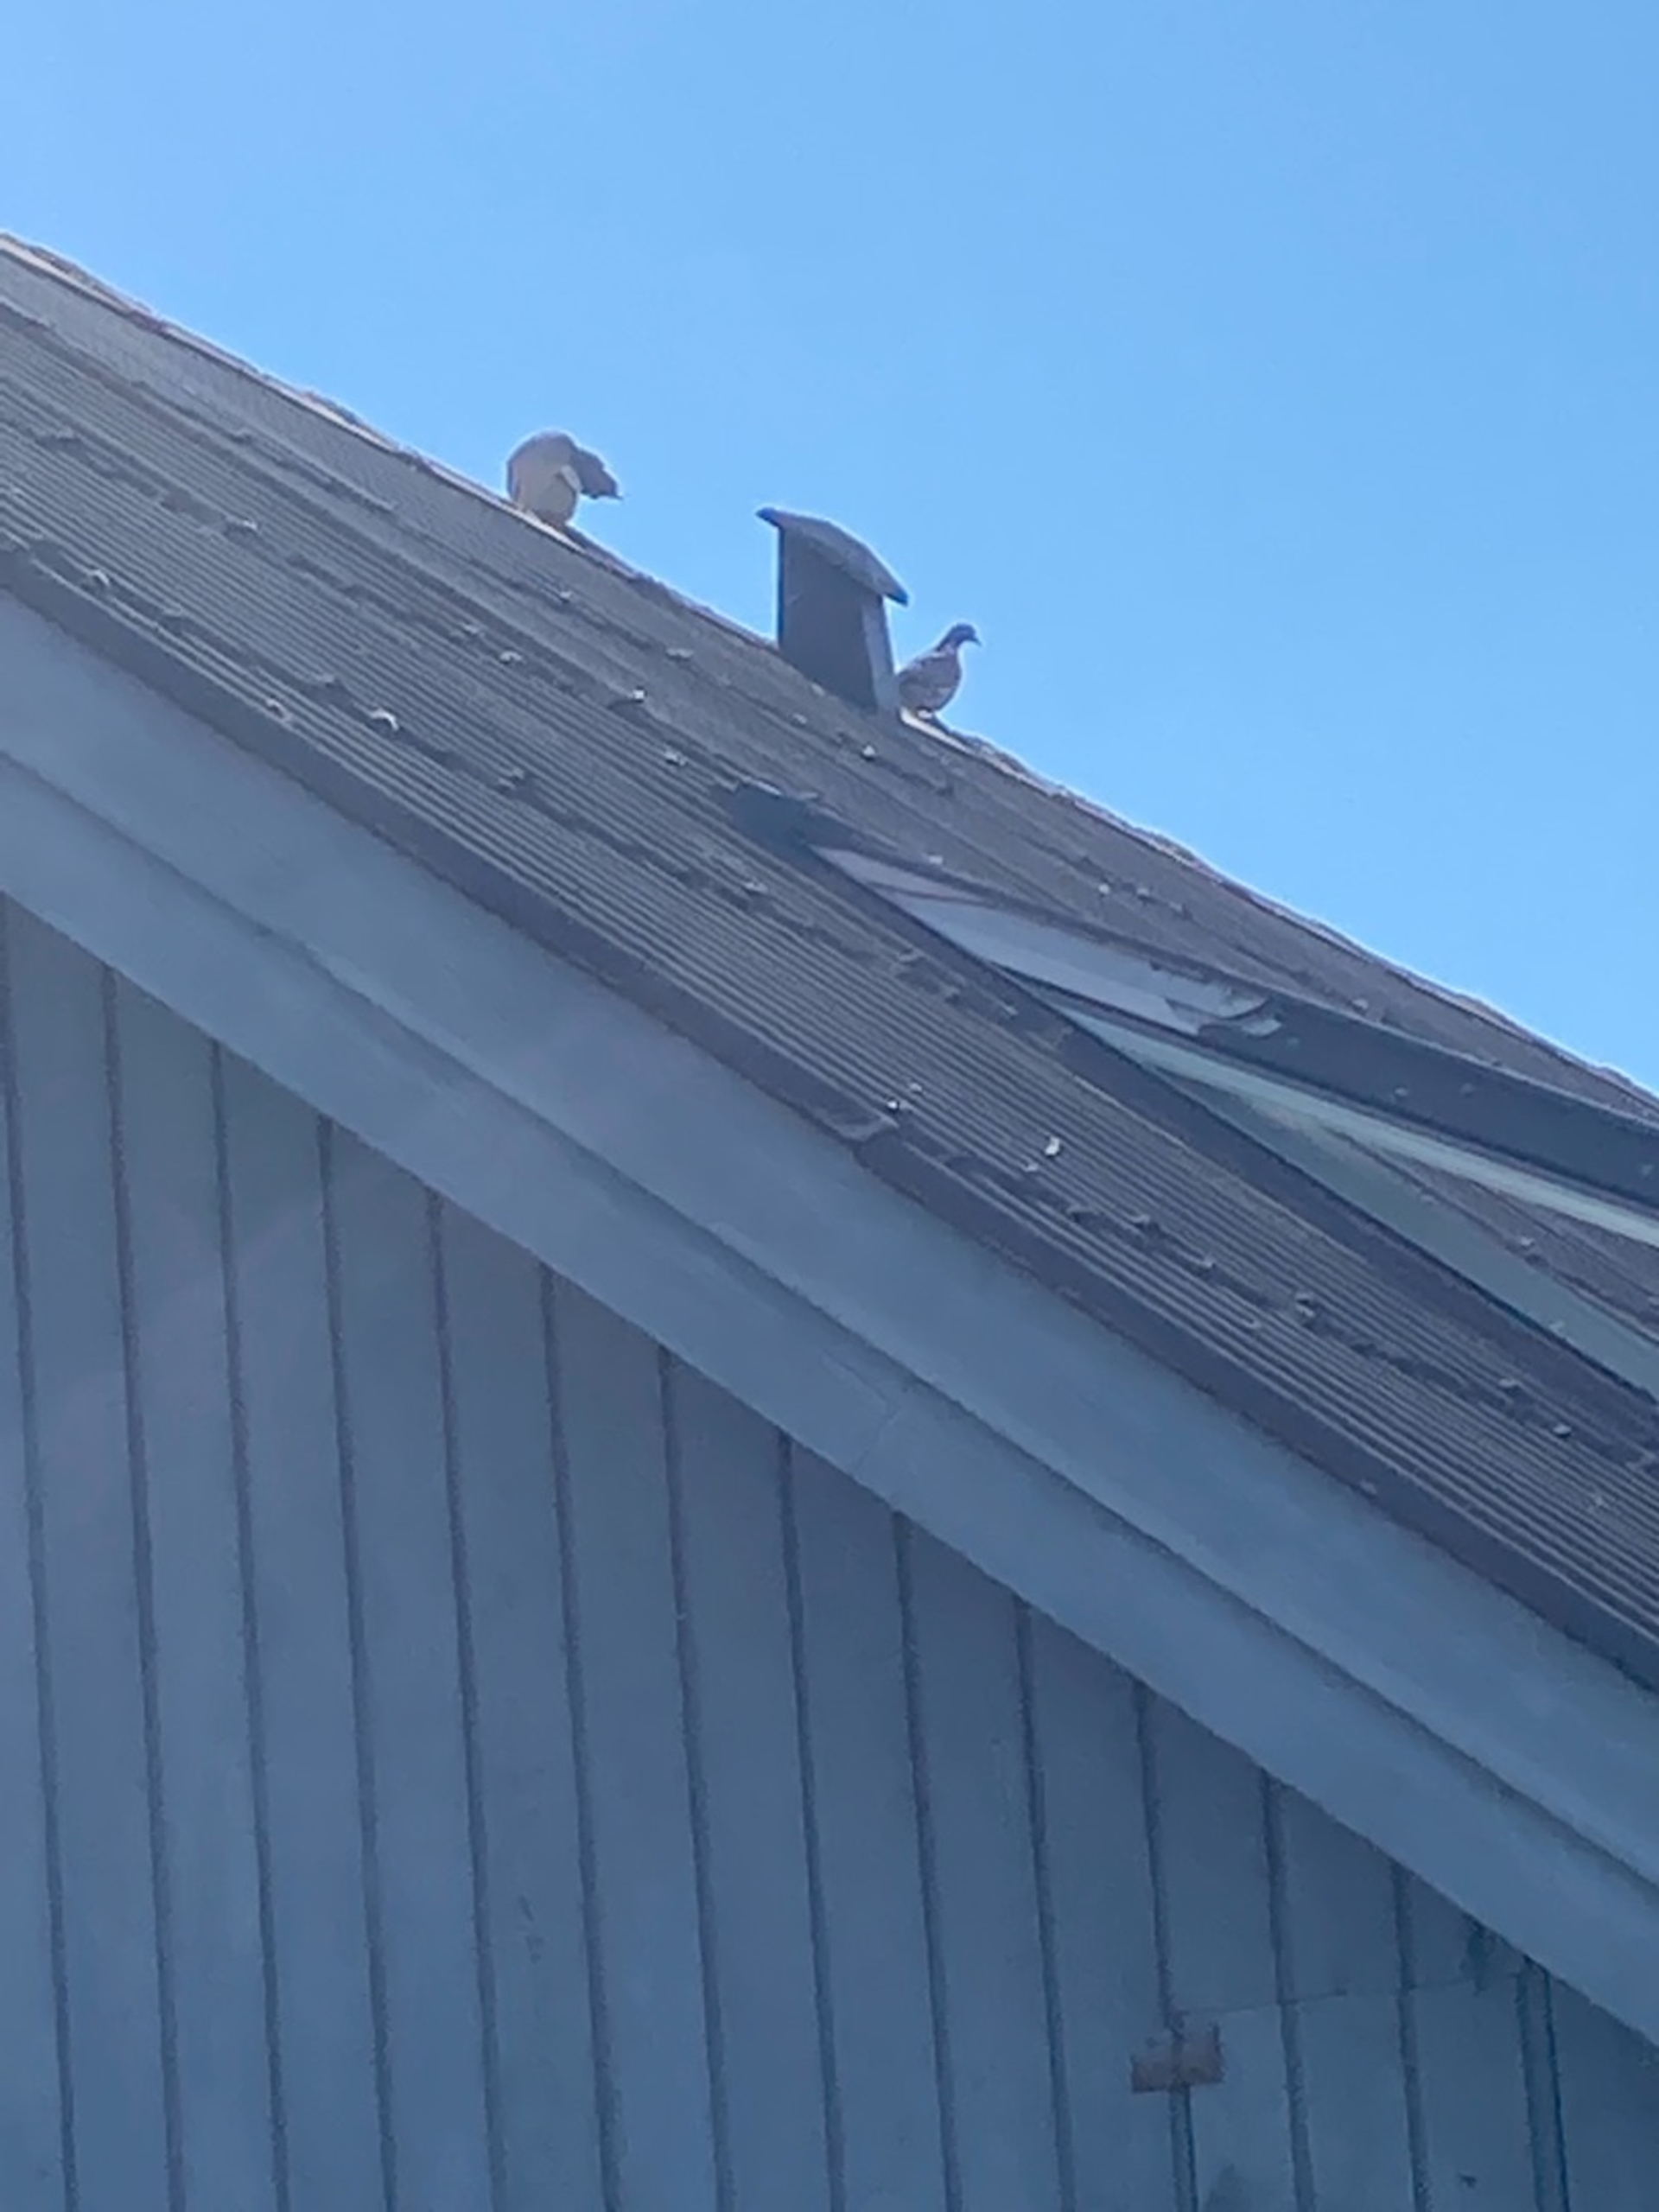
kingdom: Animalia
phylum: Chordata
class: Aves
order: Columbiformes
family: Columbidae
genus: Columba
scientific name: Columba palumbus
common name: Ringdue
